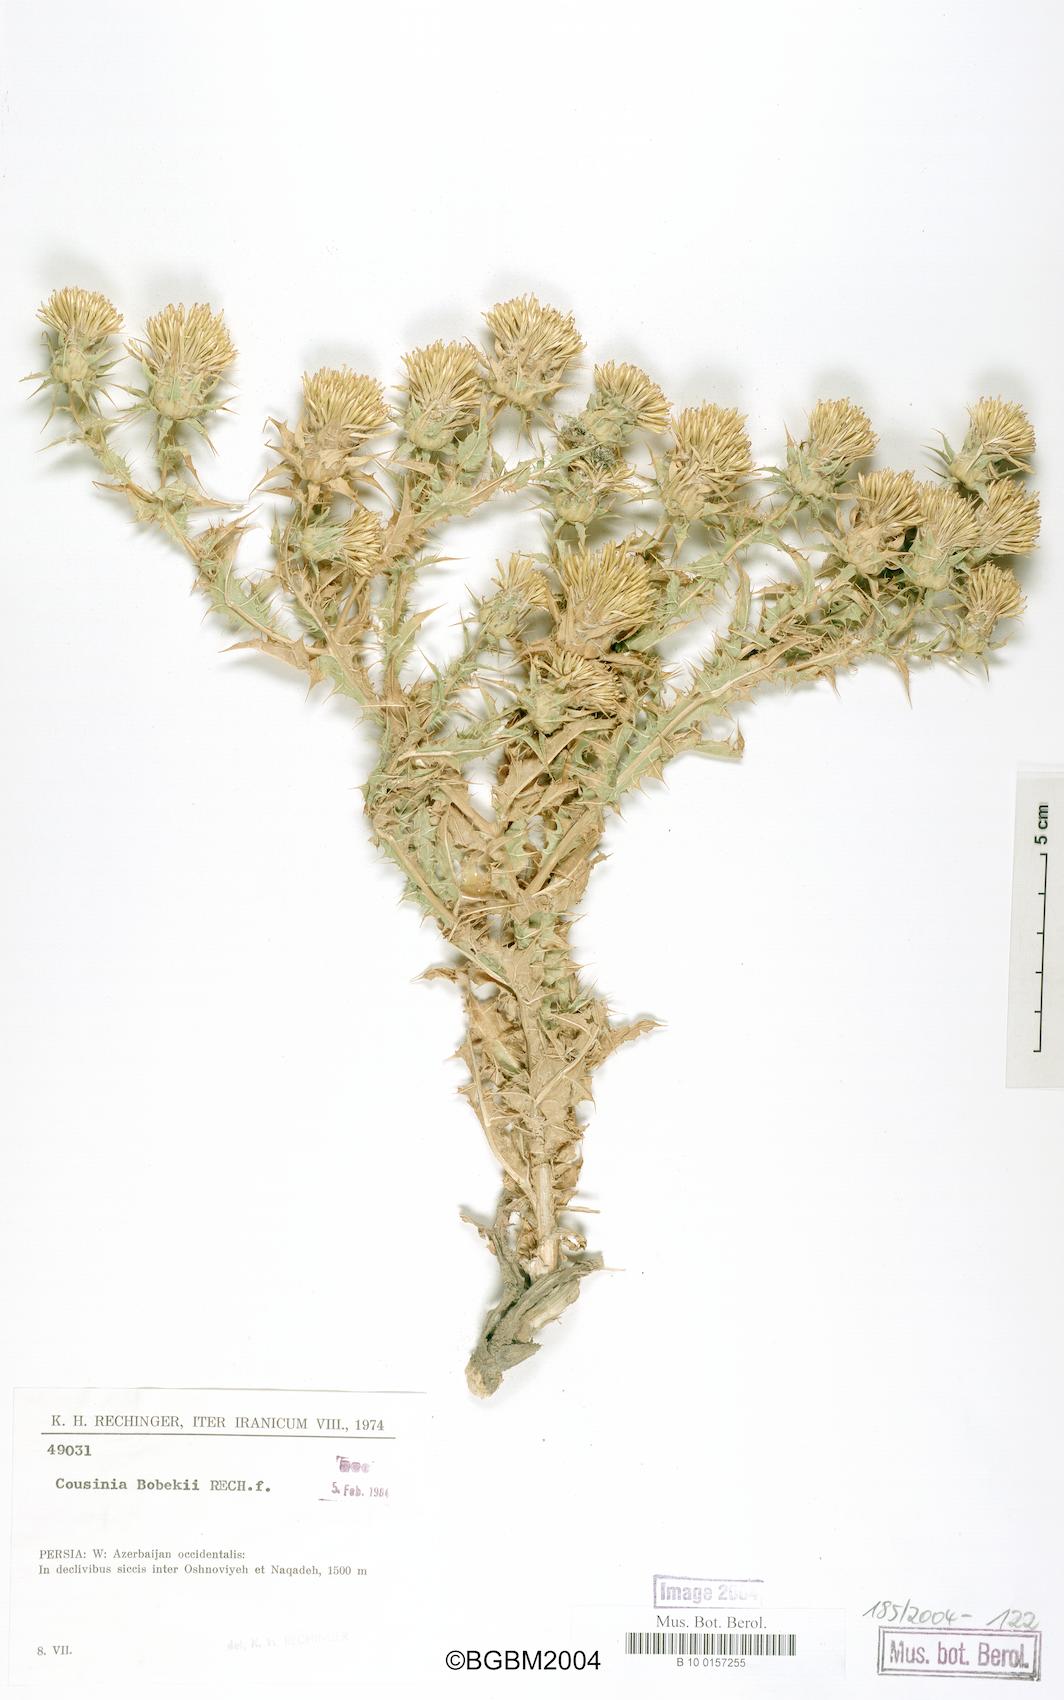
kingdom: Plantae
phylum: Tracheophyta
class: Magnoliopsida
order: Asterales
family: Asteraceae
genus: Cousinia
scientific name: Cousinia bobekii
